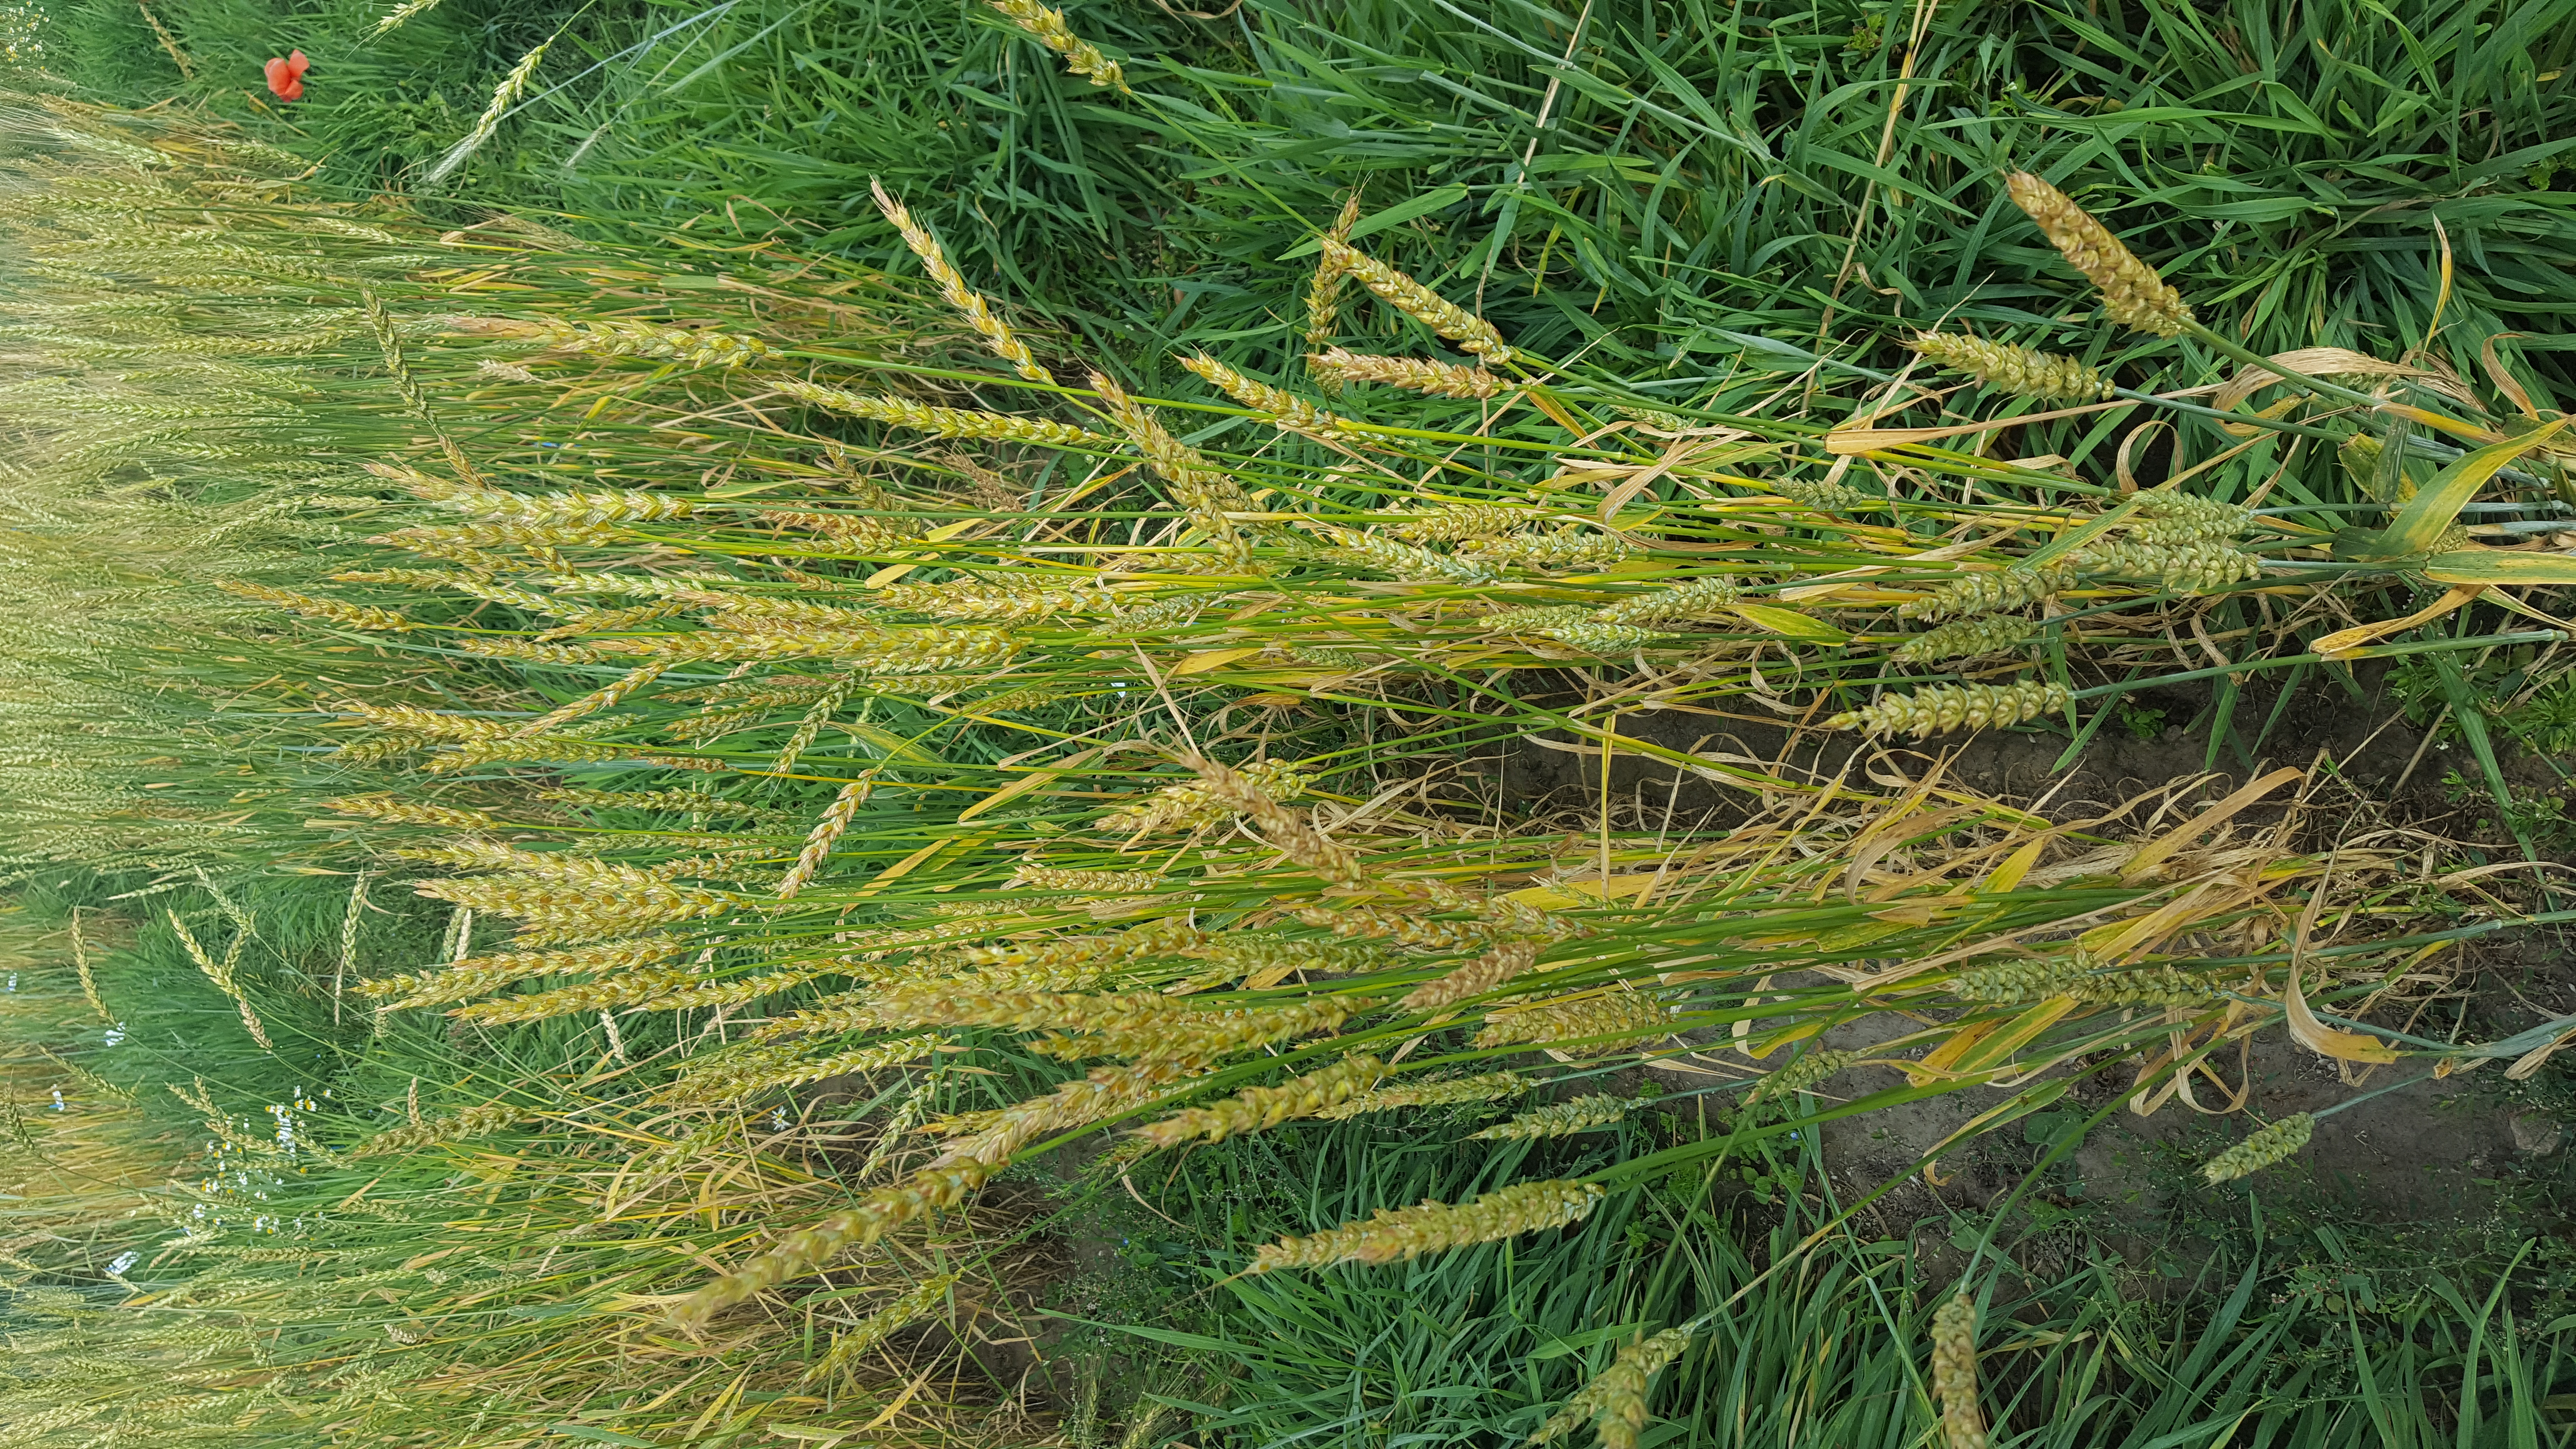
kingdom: Plantae
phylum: Tracheophyta
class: Liliopsida
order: Poales
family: Poaceae
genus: Triticum
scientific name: Triticum aestivum
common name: Common wheat
